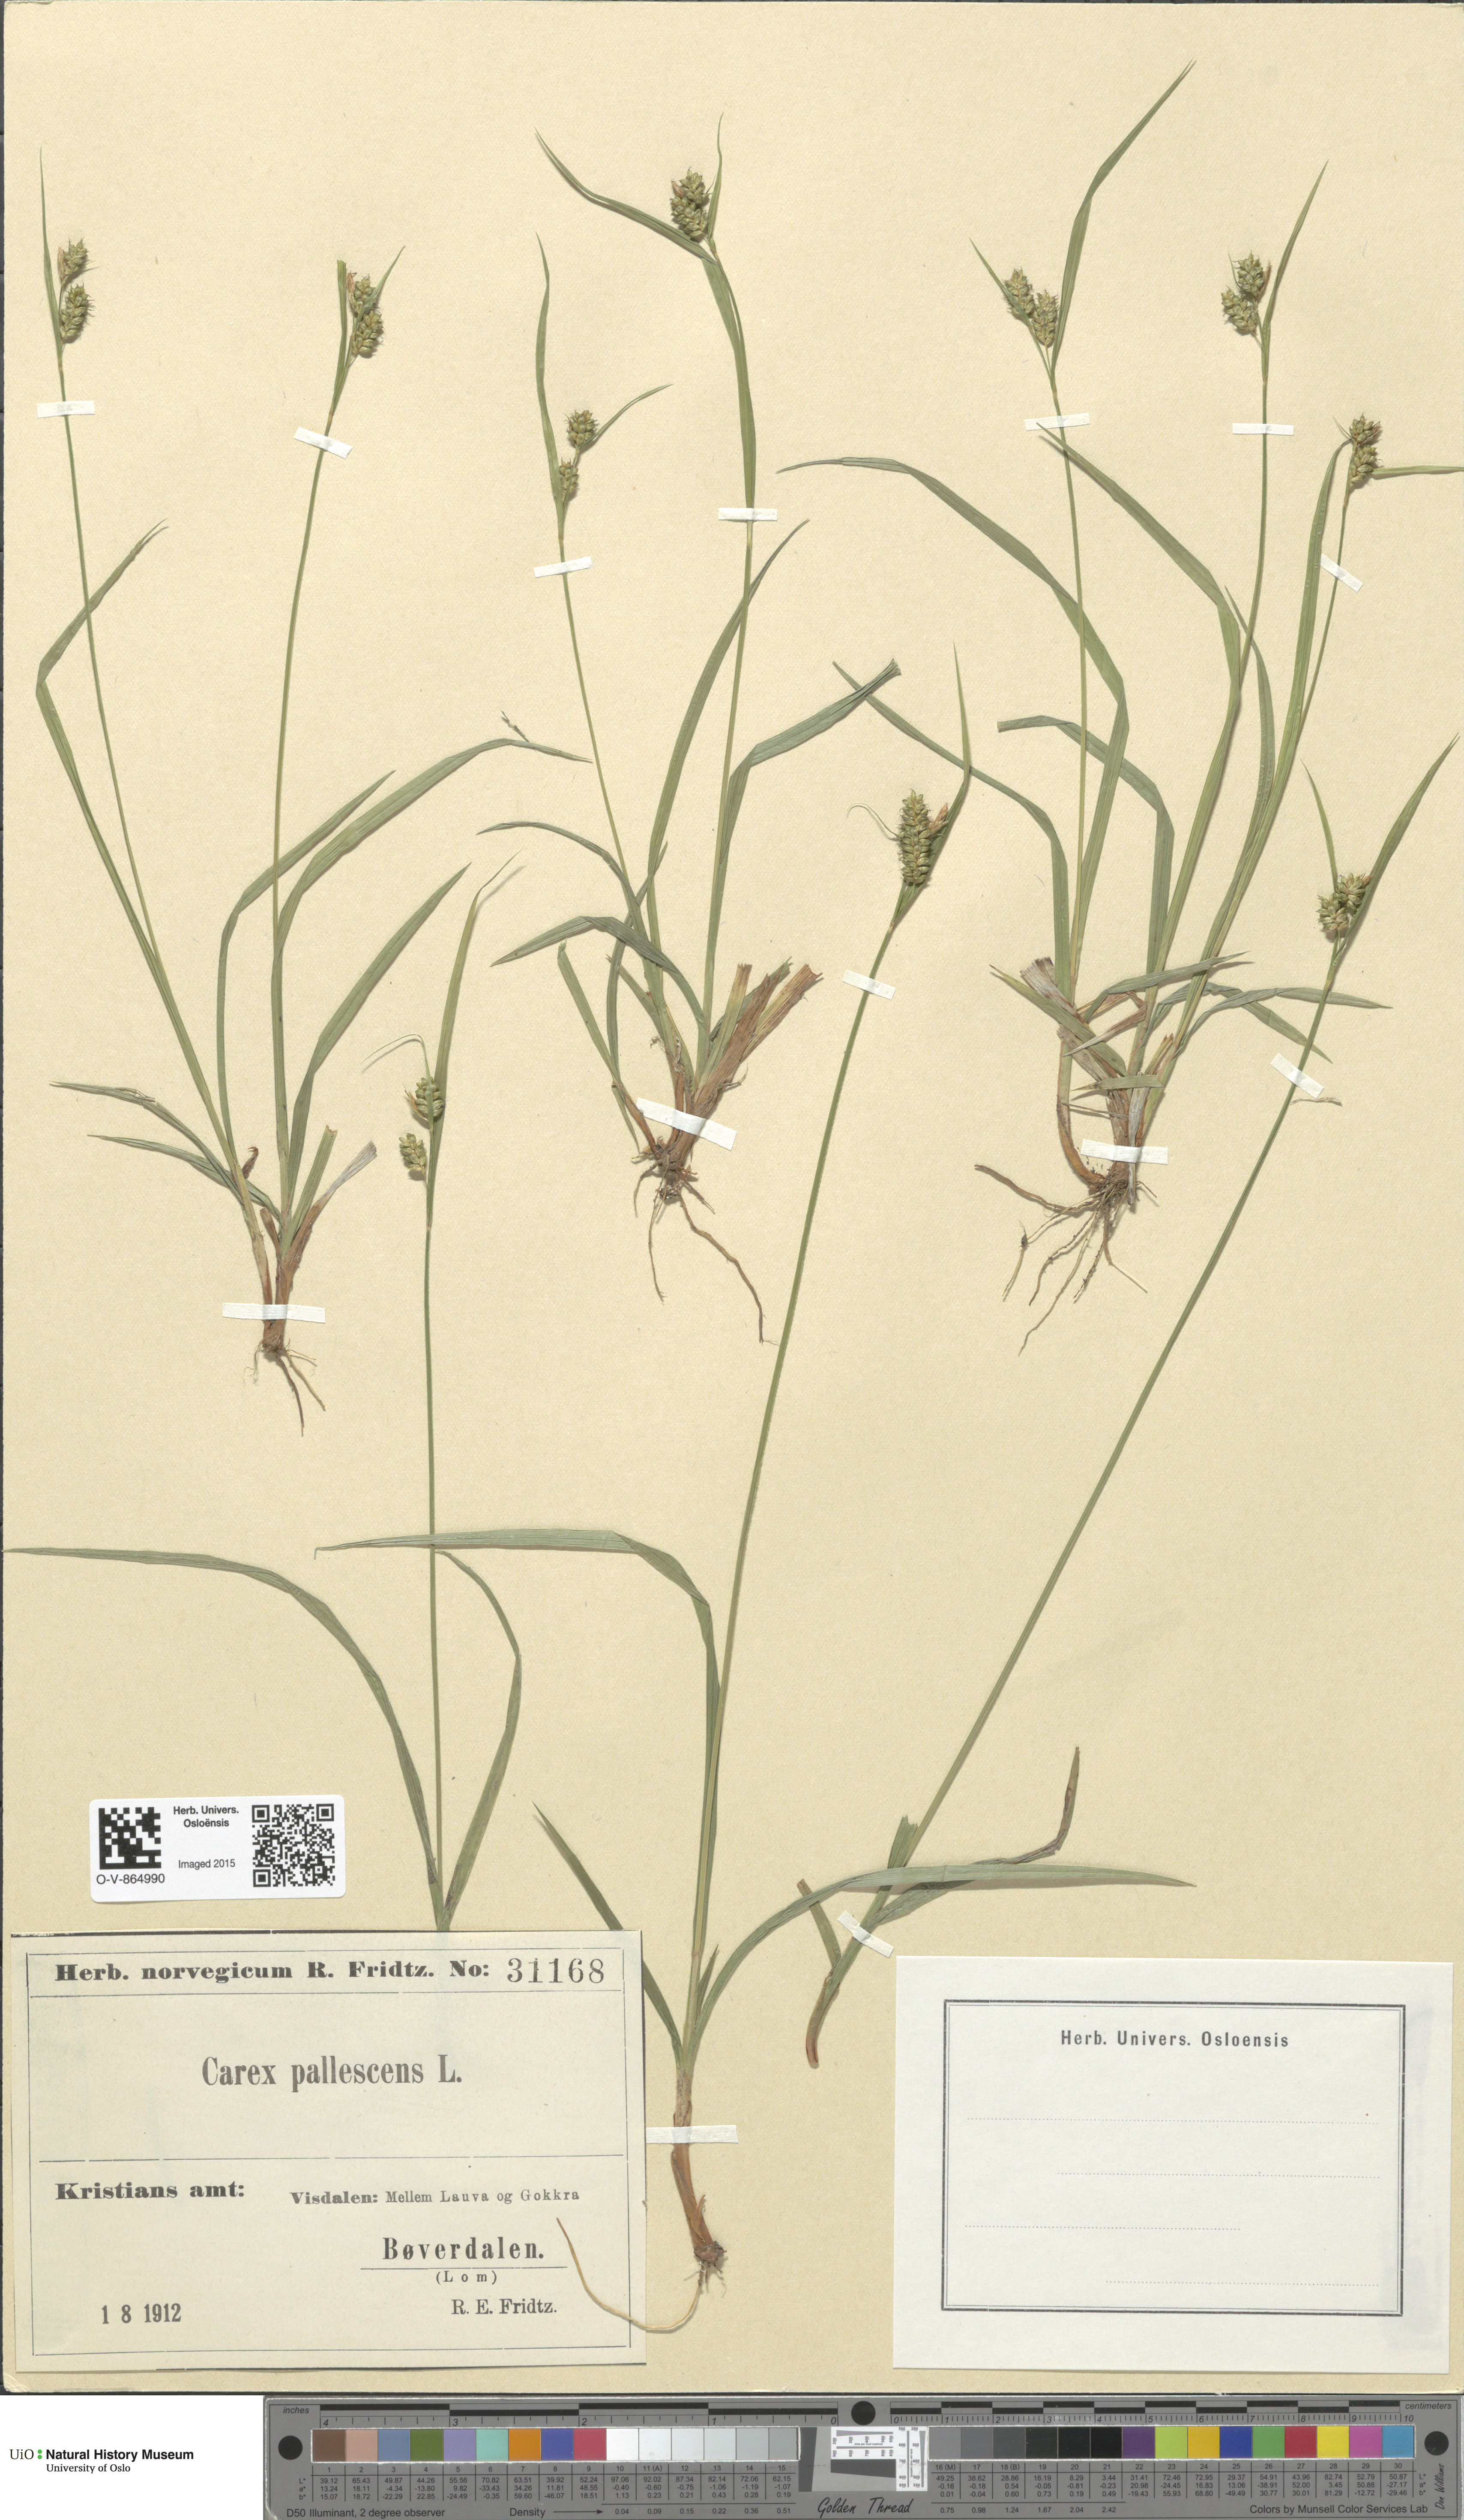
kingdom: Plantae
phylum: Tracheophyta
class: Liliopsida
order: Poales
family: Cyperaceae
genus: Carex
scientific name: Carex pallescens
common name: Pale sedge
